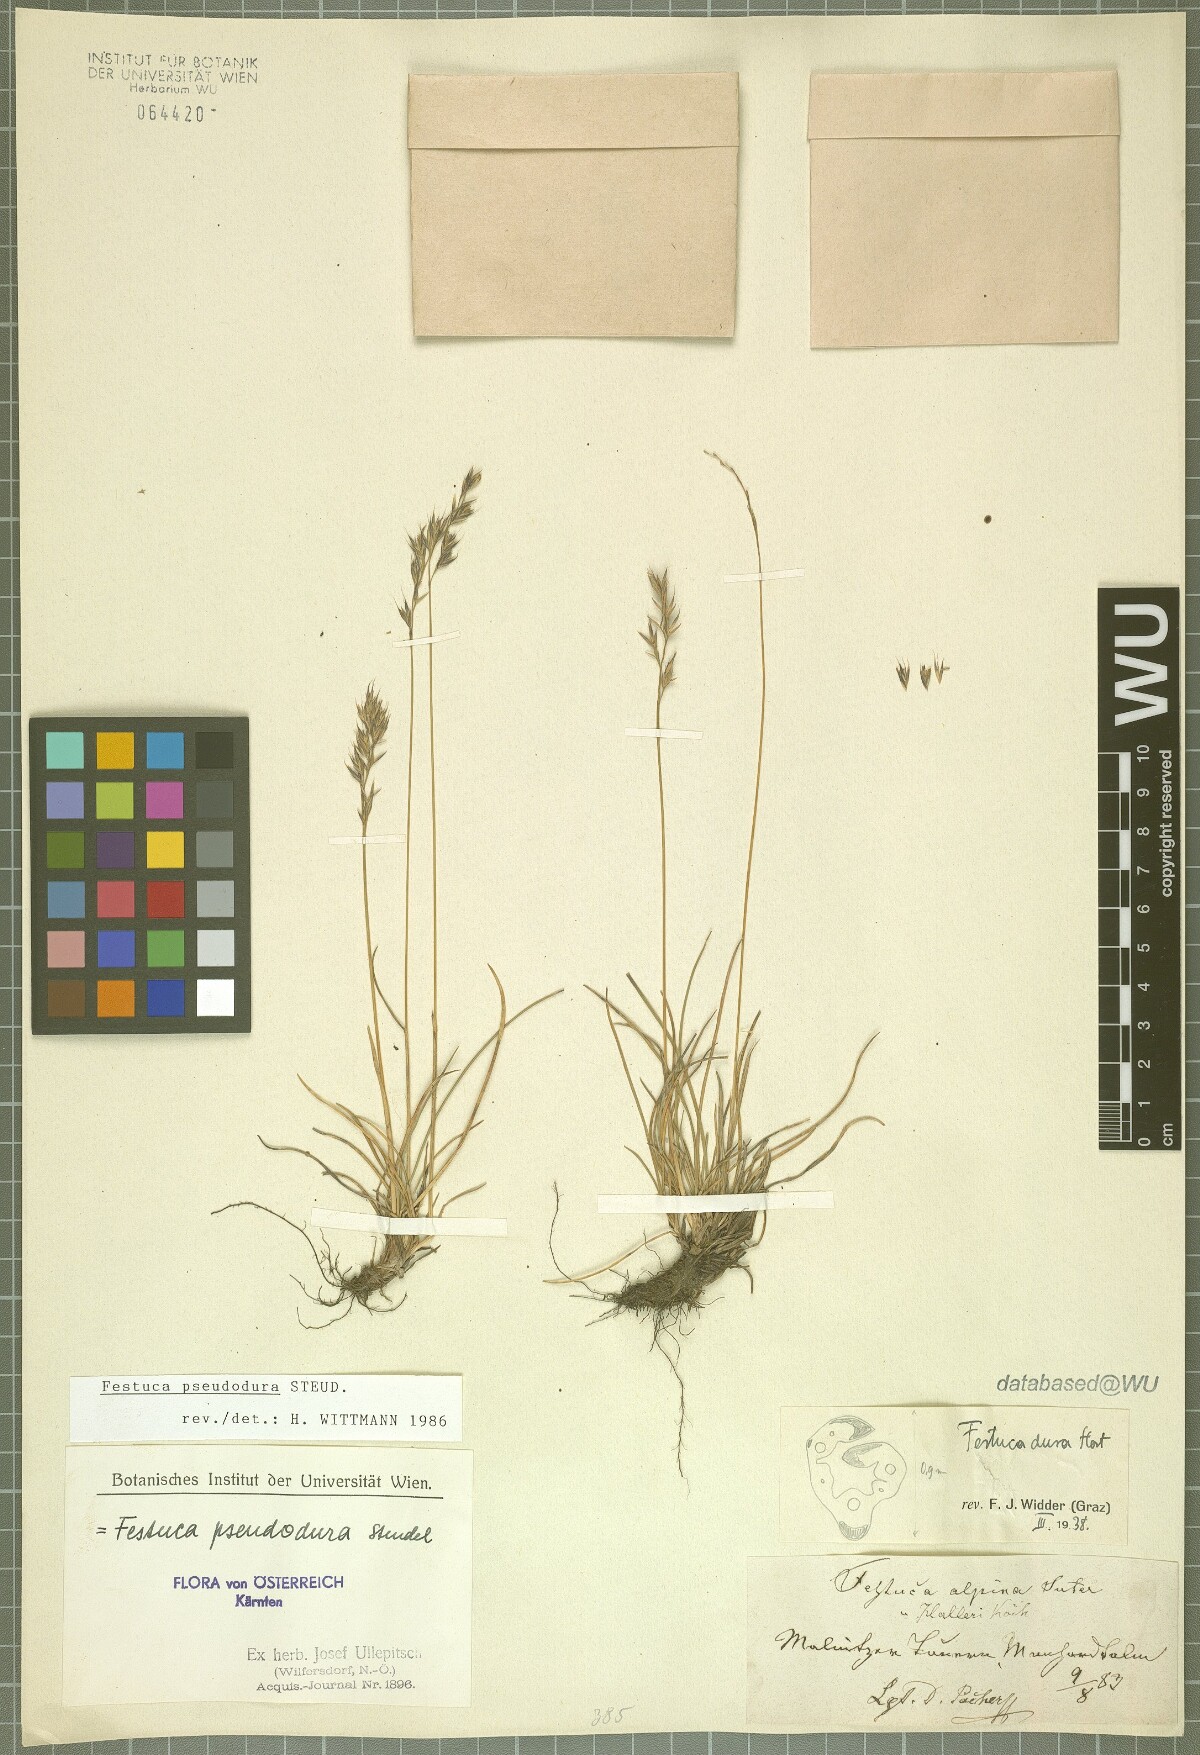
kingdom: Plantae
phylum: Tracheophyta
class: Liliopsida
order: Poales
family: Poaceae
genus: Festuca
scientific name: Festuca pseudodura
